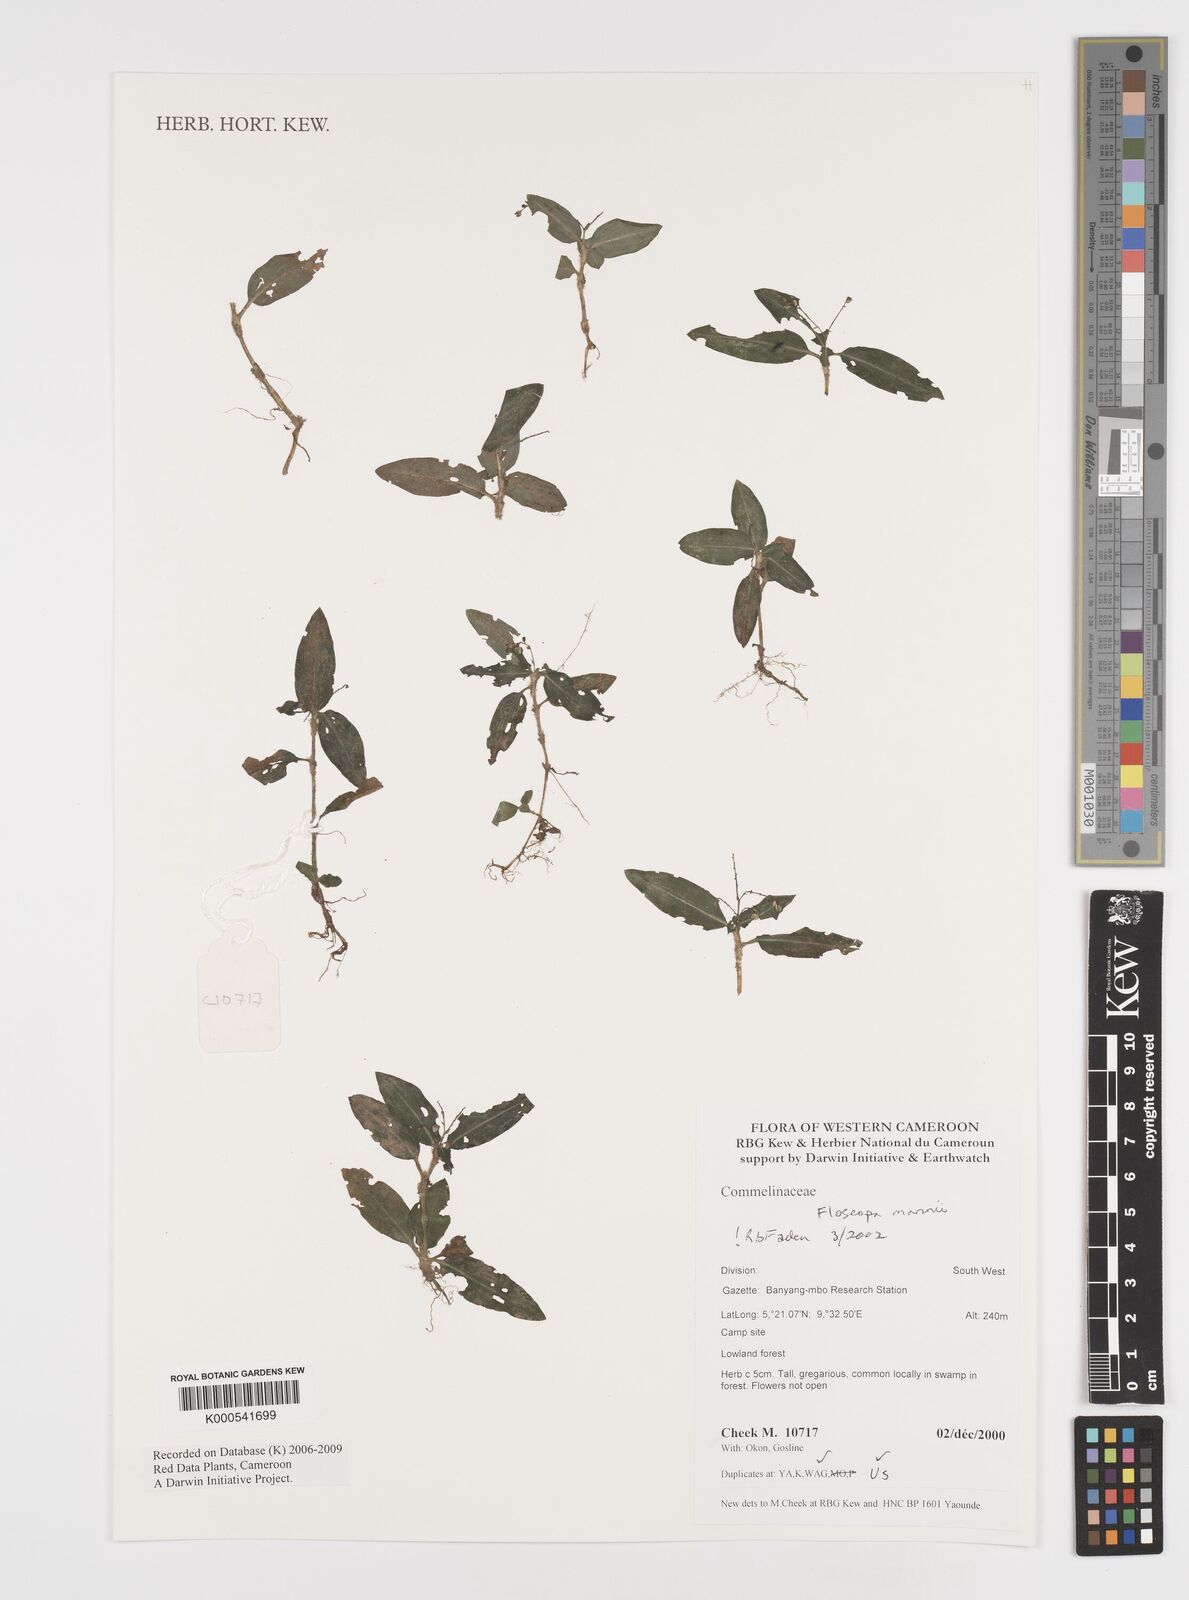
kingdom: Plantae
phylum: Tracheophyta
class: Liliopsida
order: Commelinales
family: Commelinaceae
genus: Floscopa
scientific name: Floscopa mannii
